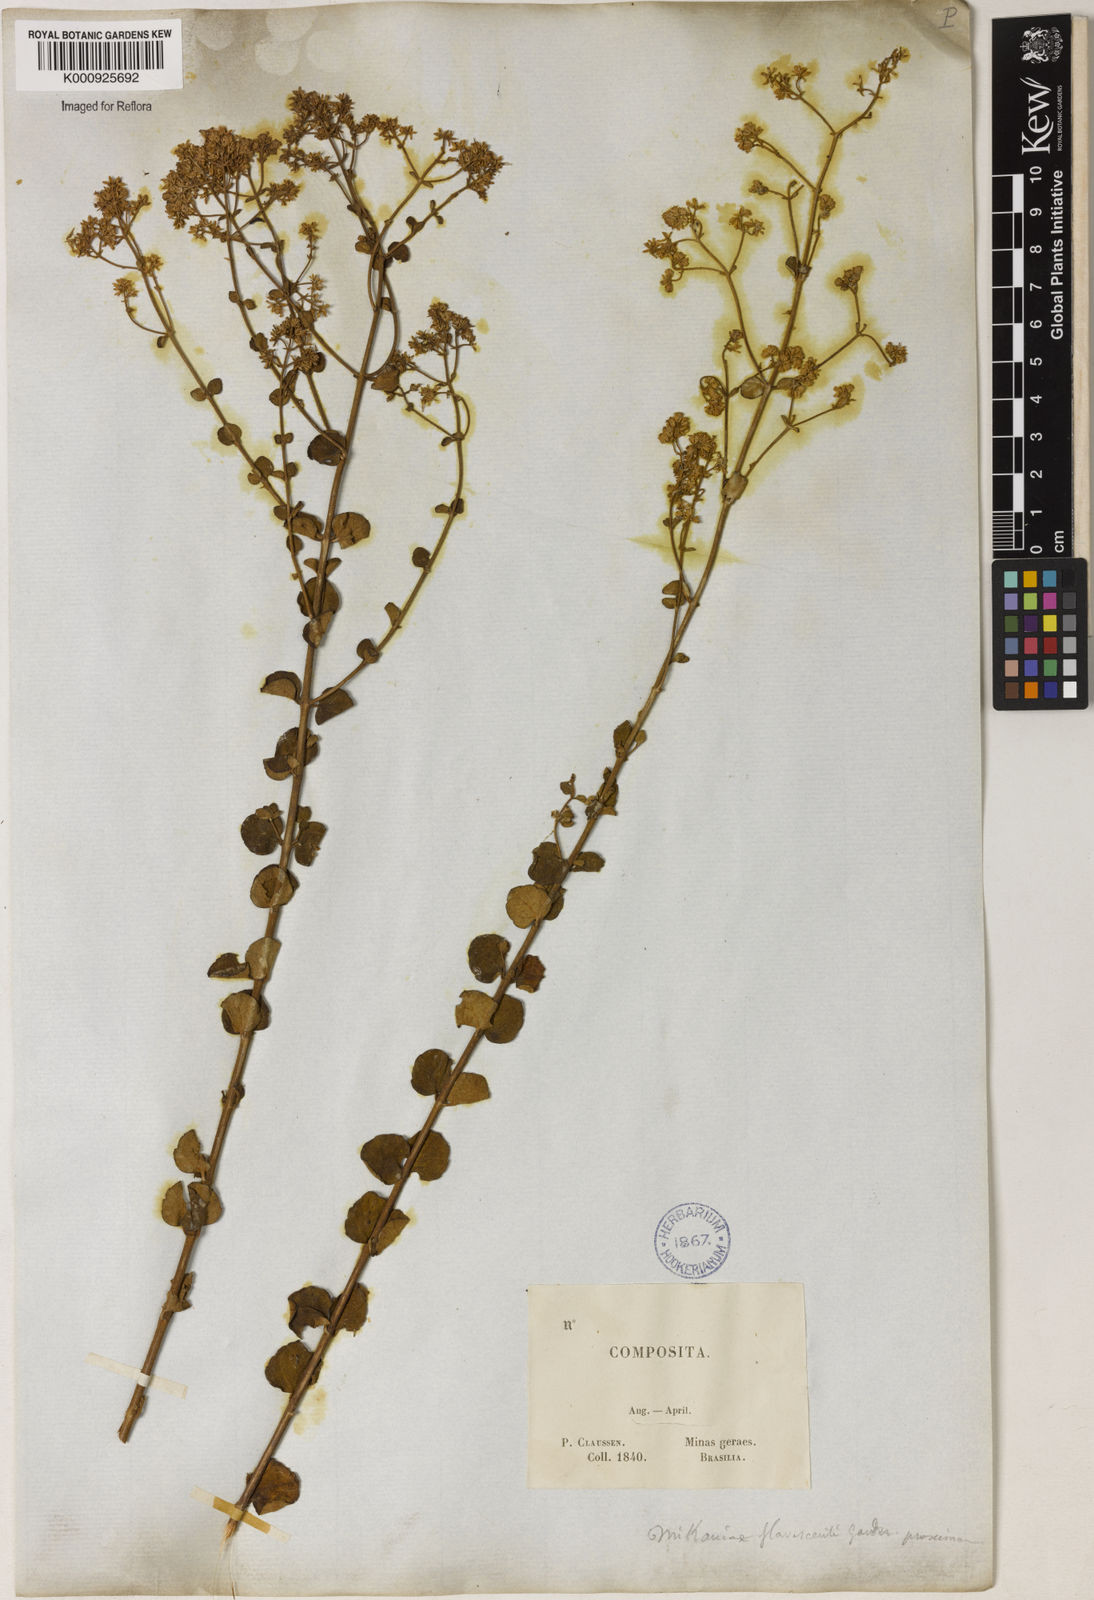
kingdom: Plantae
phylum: Tracheophyta
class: Magnoliopsida
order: Asterales
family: Asteraceae
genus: Mikania
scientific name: Mikania nummularia
